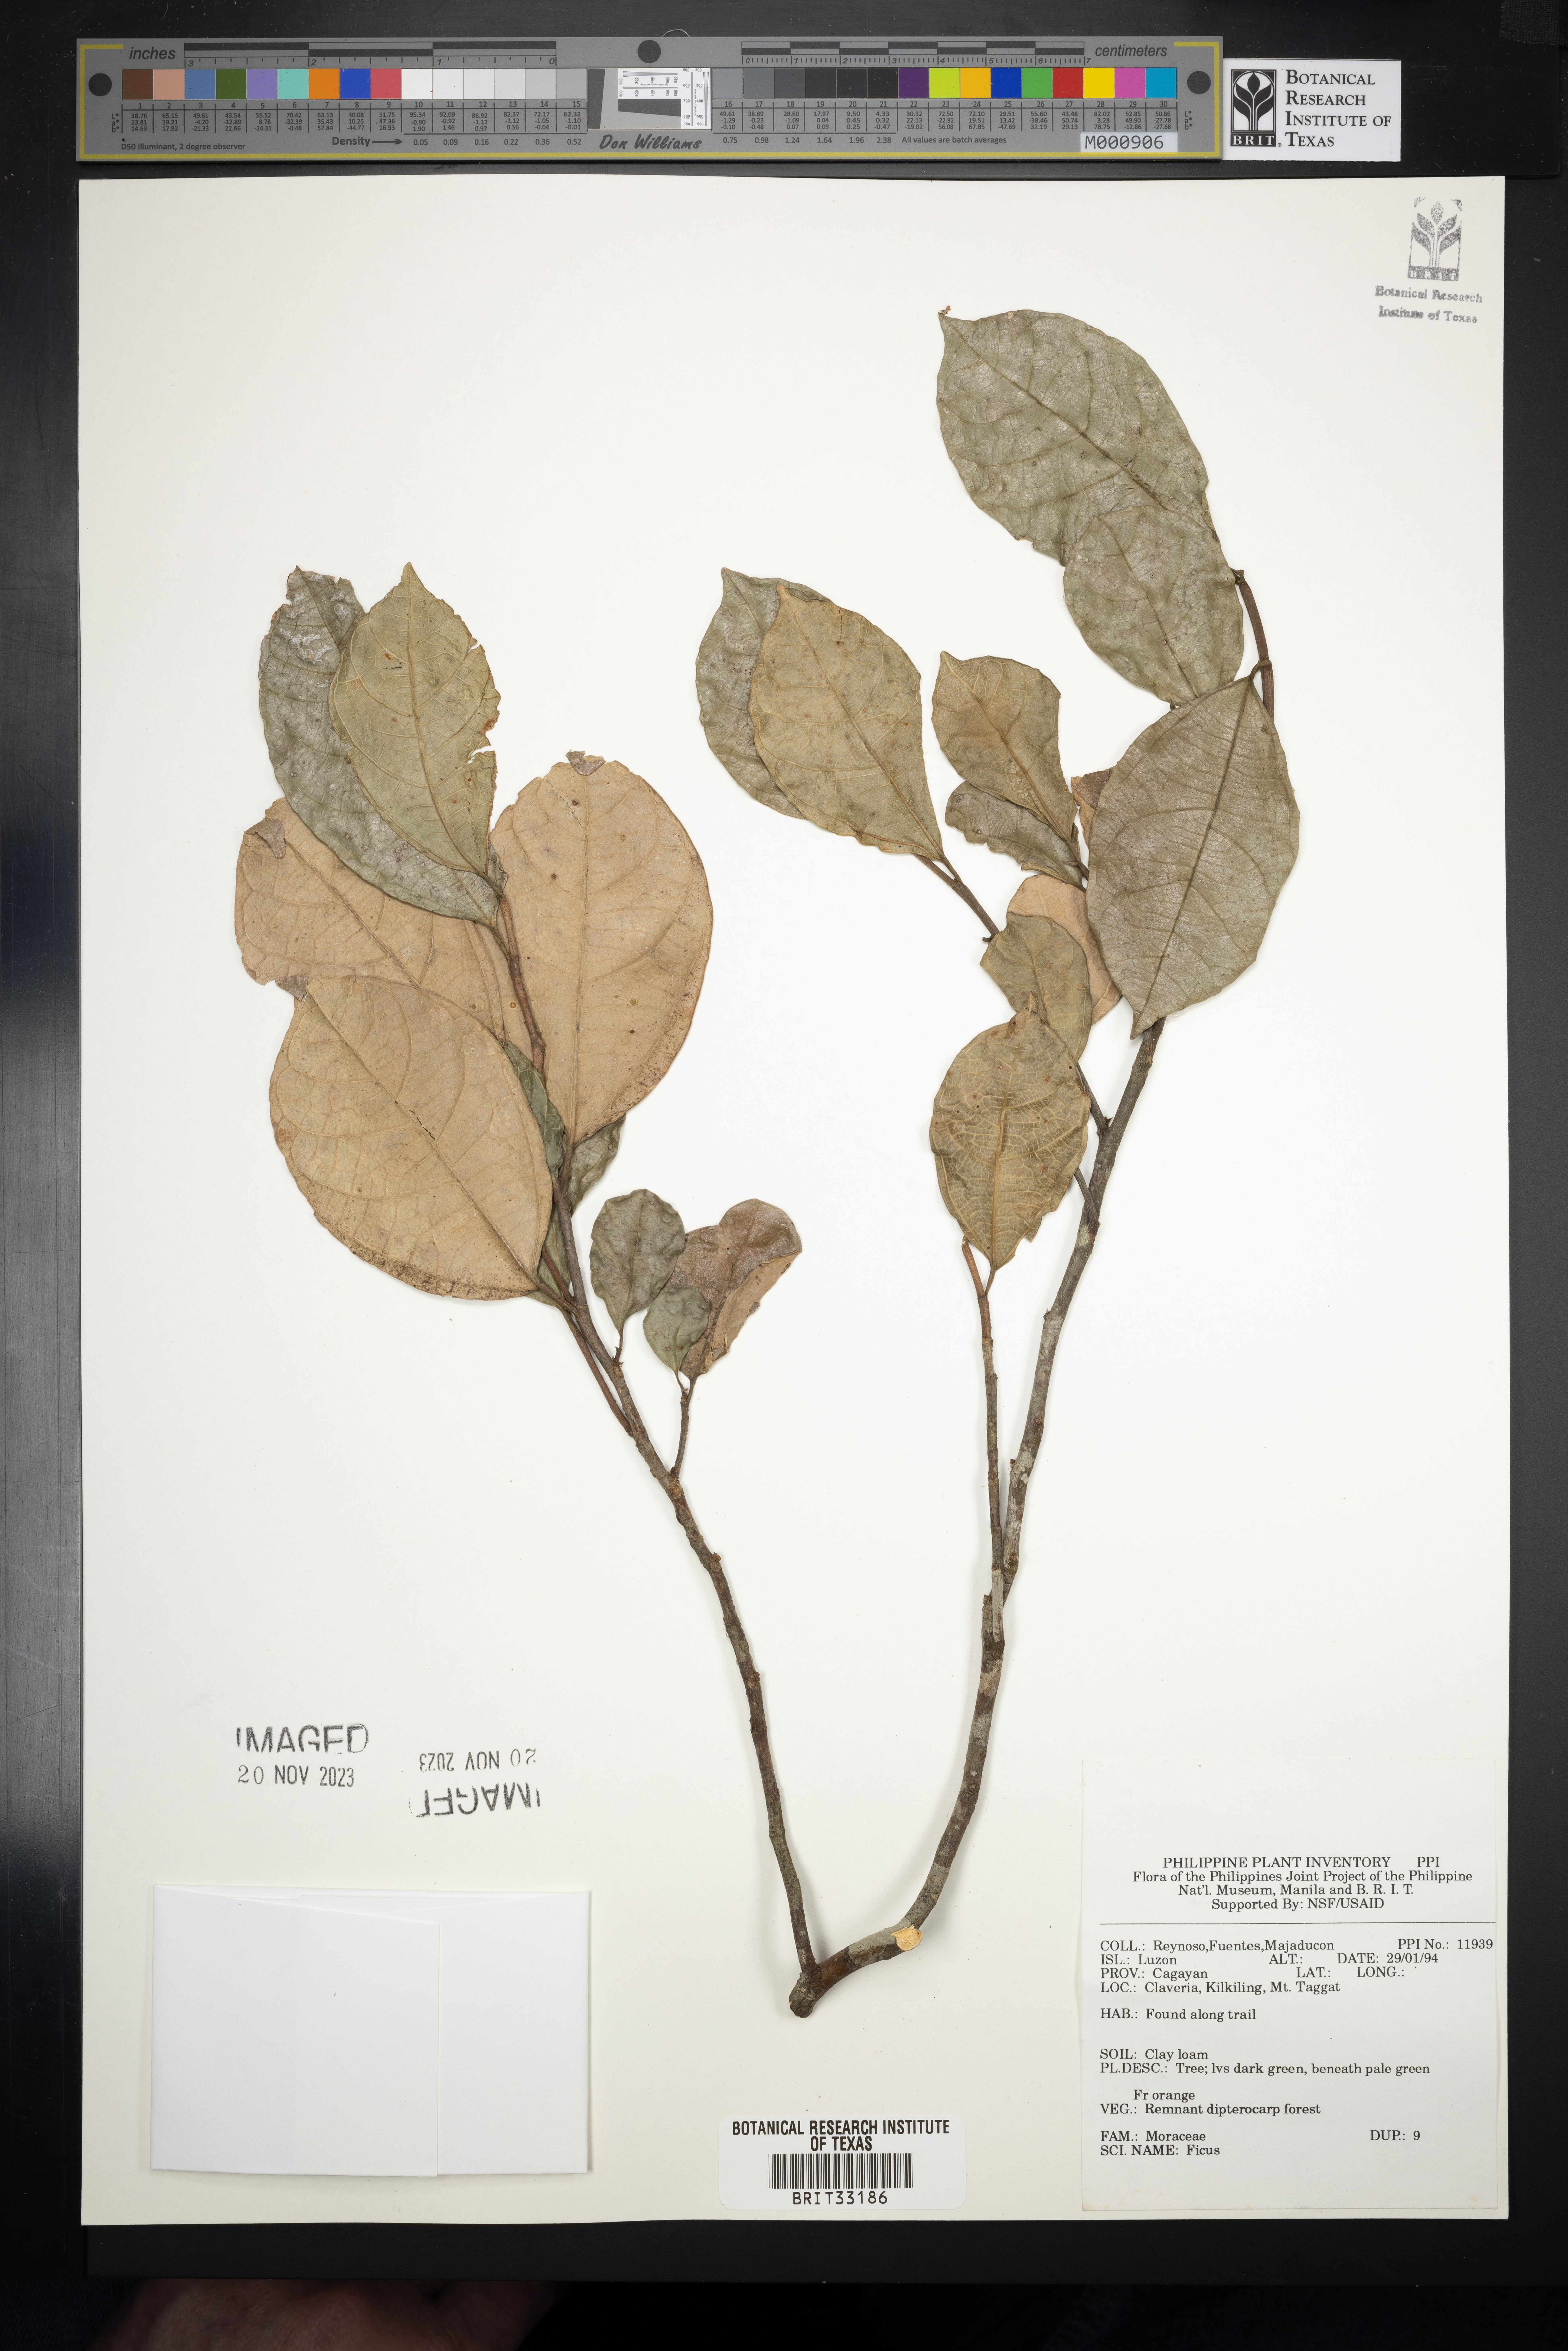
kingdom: Plantae
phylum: Tracheophyta
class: Magnoliopsida
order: Rosales
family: Moraceae
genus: Ficus
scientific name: Ficus
